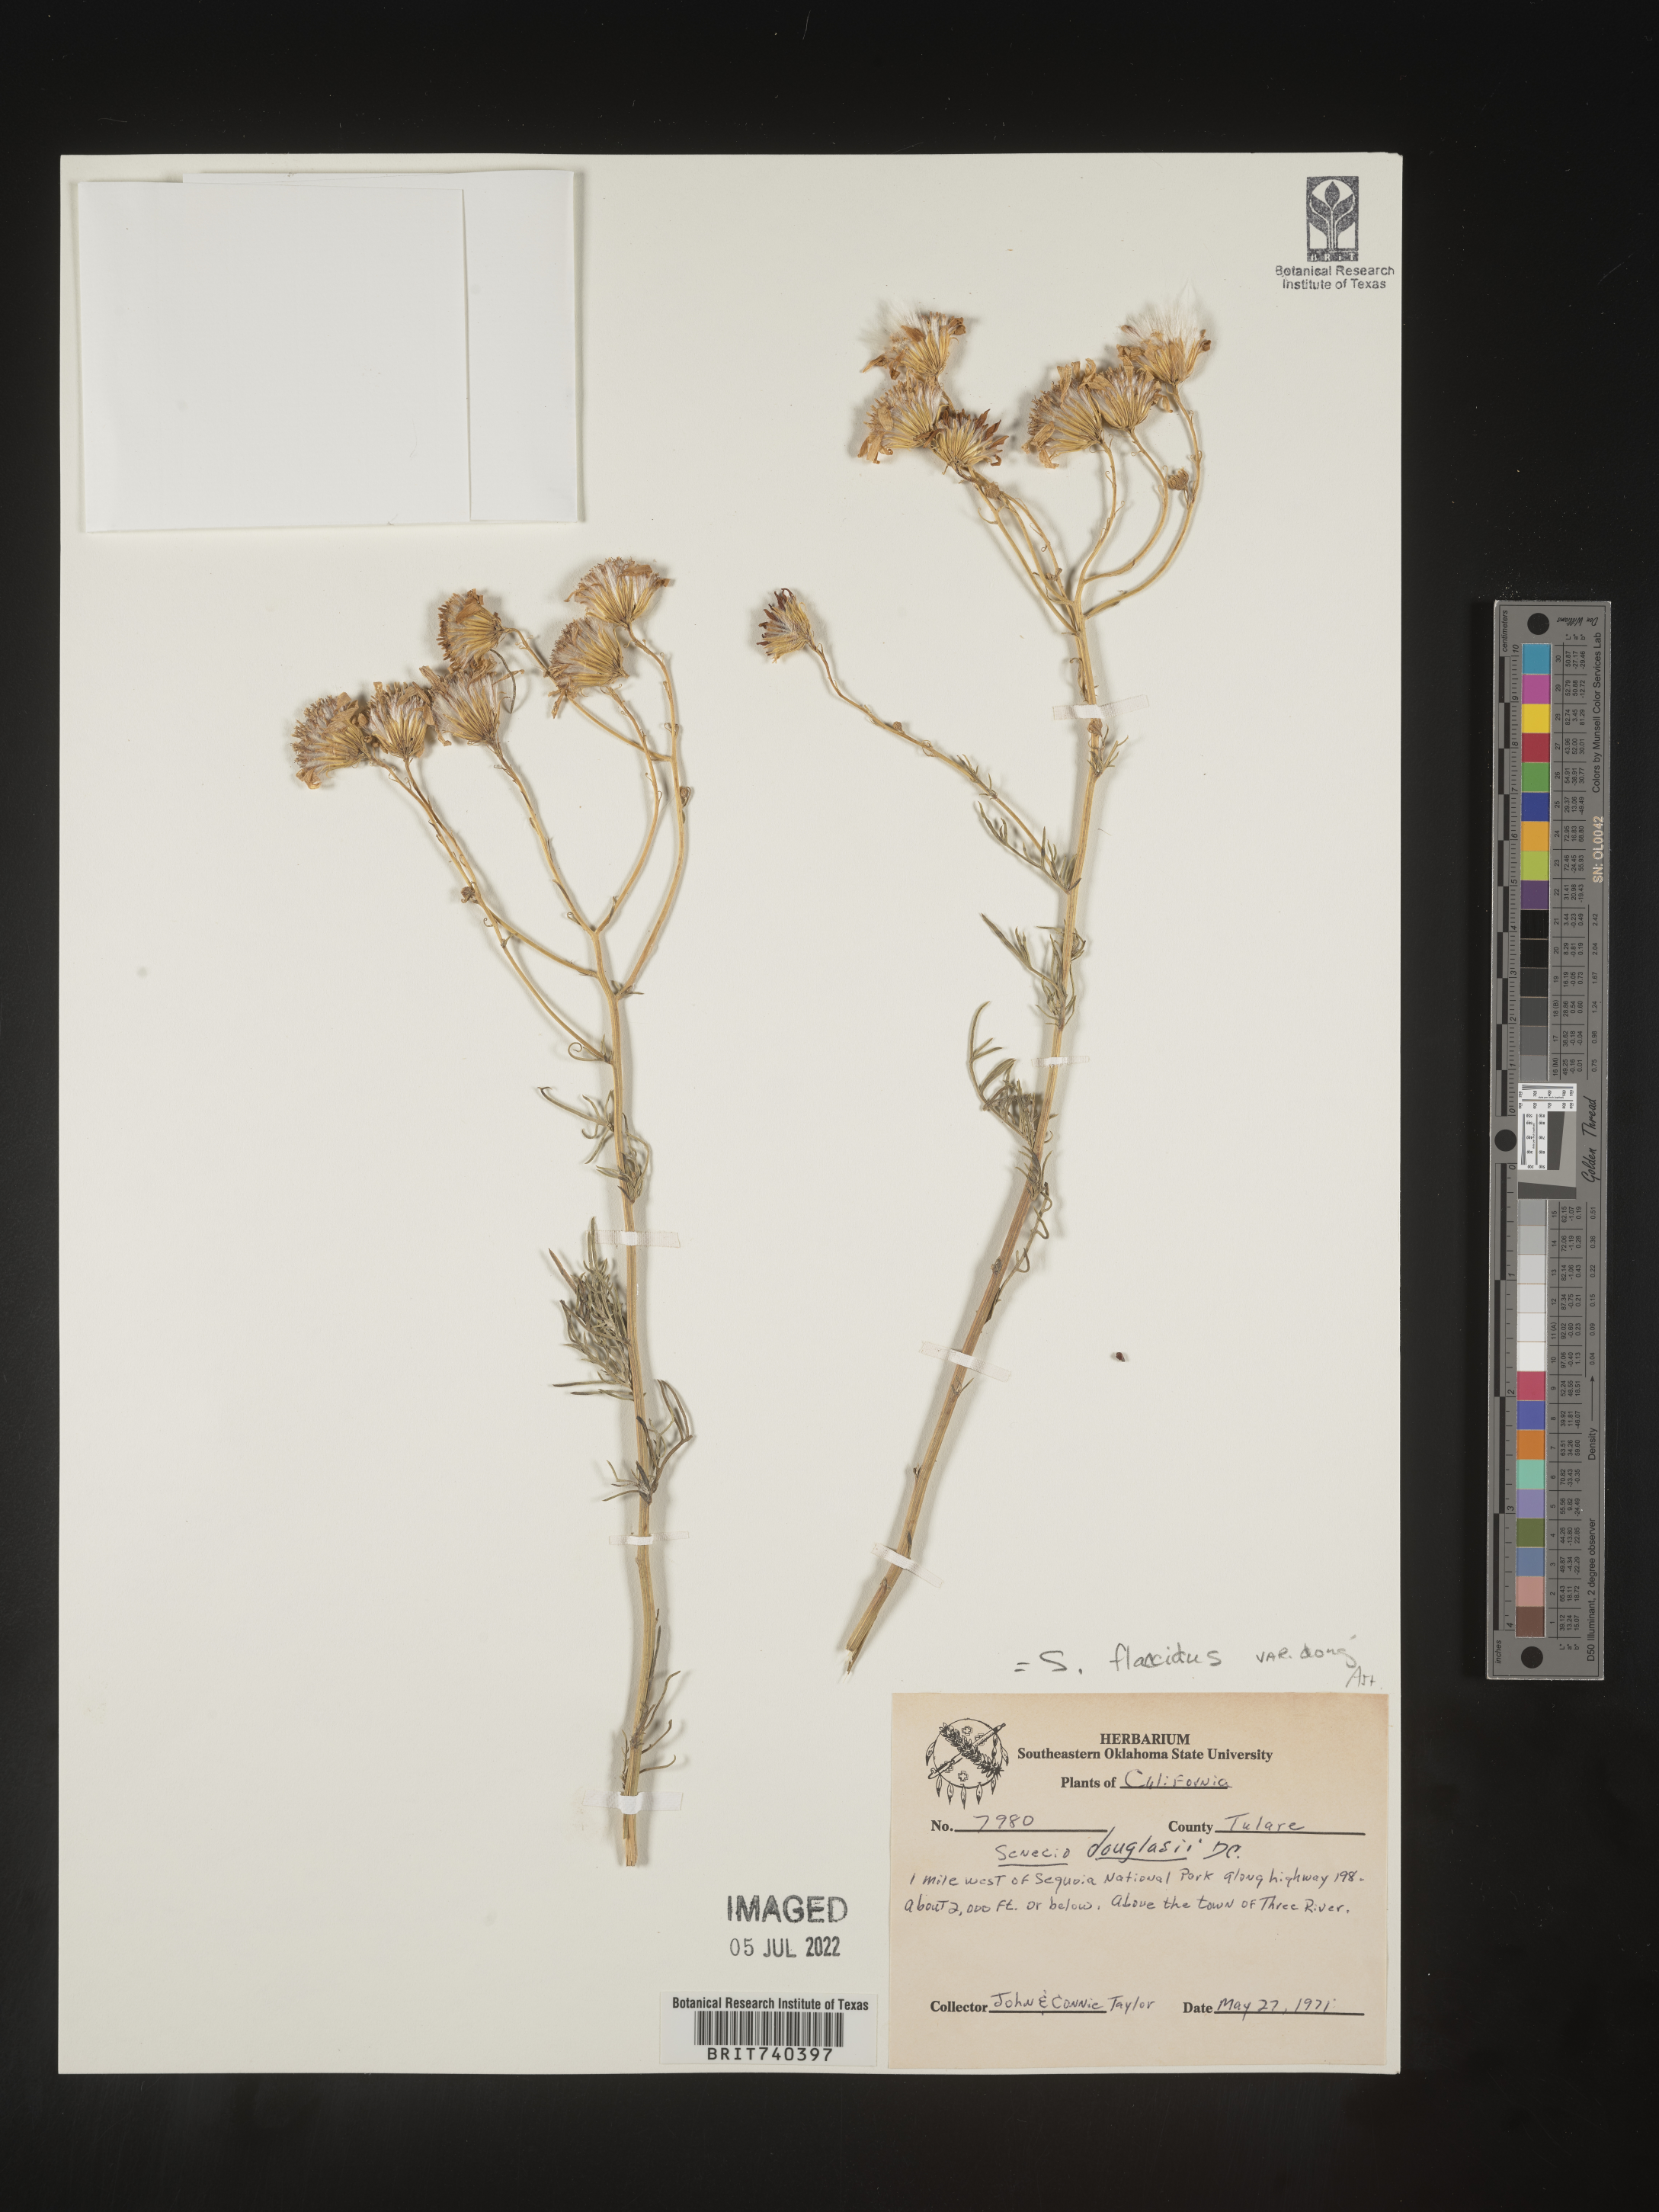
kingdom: Plantae
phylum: Tracheophyta
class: Magnoliopsida
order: Asterales
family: Asteraceae
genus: Senecio
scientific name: Senecio flaccidus
